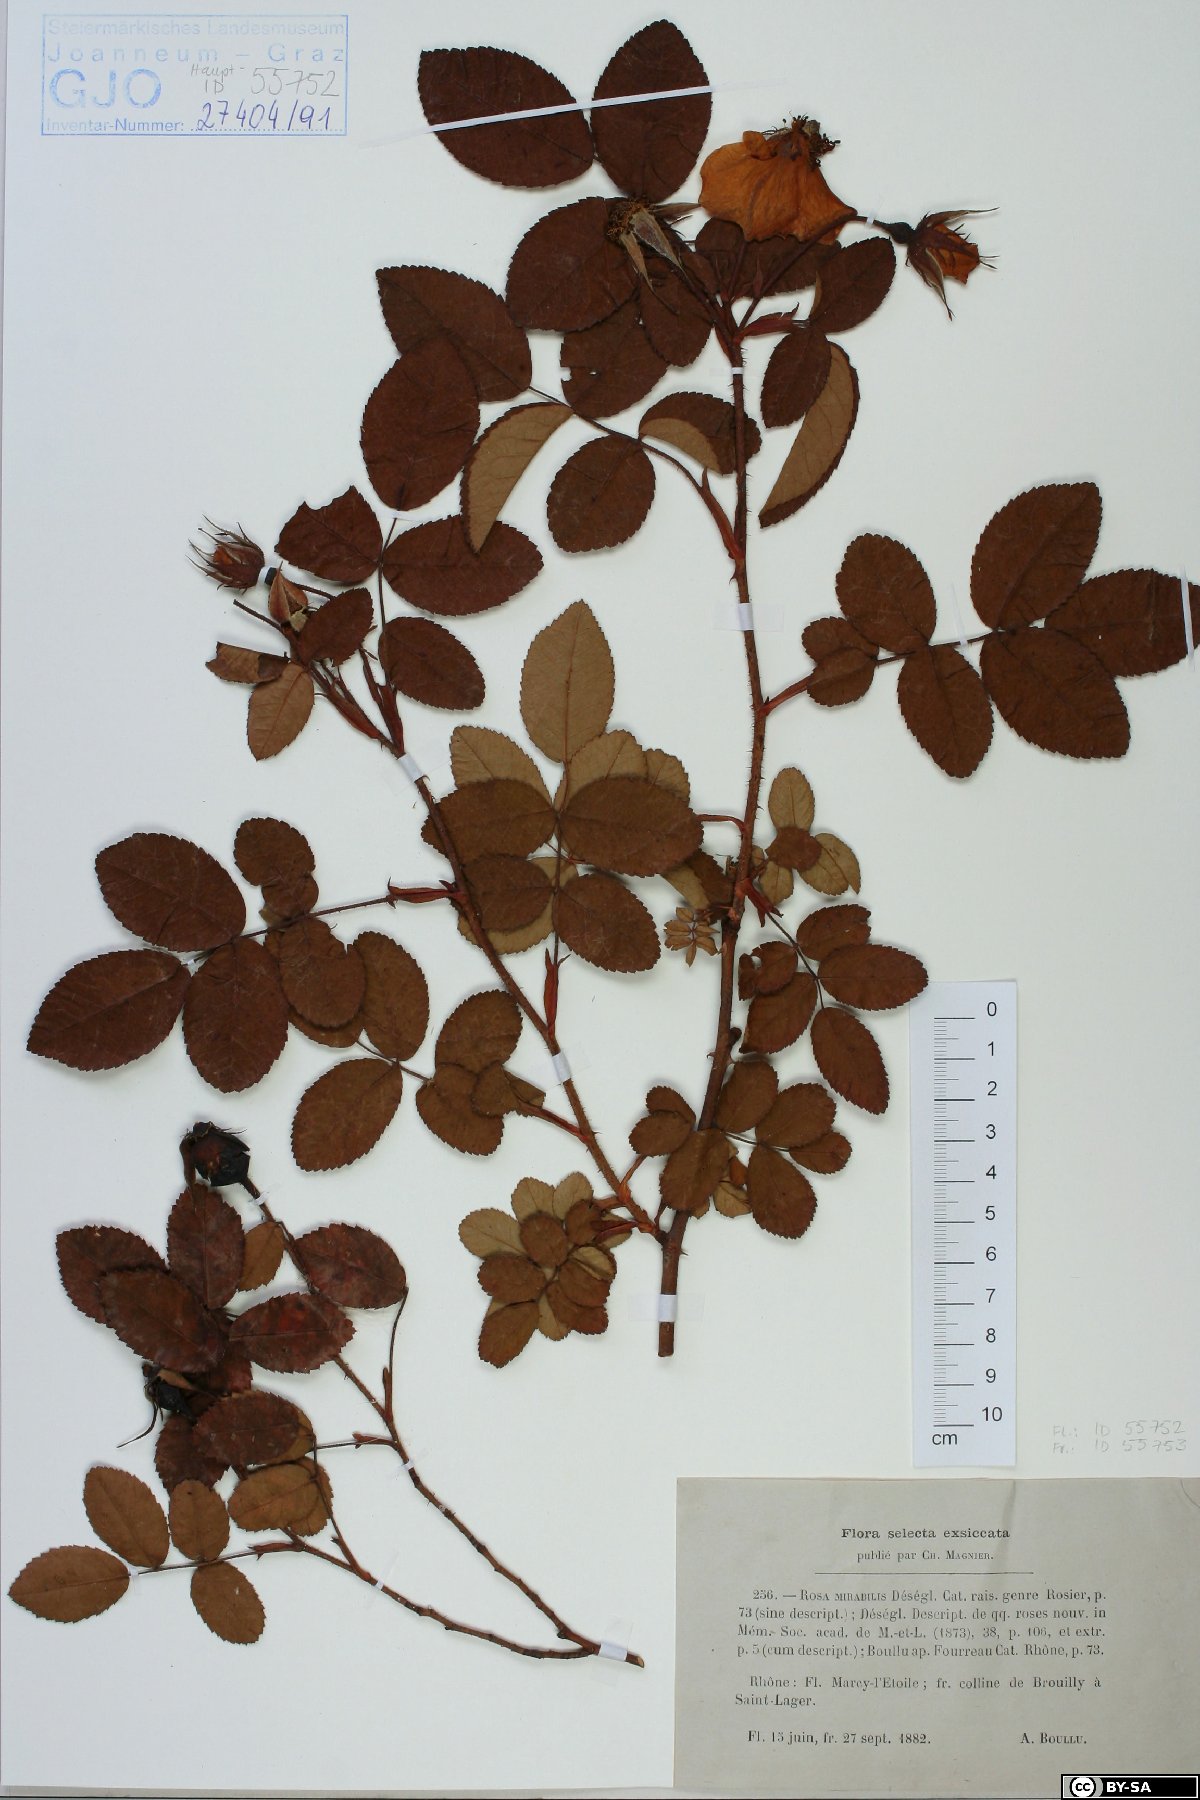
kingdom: Plantae
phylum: Tracheophyta
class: Magnoliopsida
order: Rosales
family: Rosaceae
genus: Rosa
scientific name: Rosa polliniana
